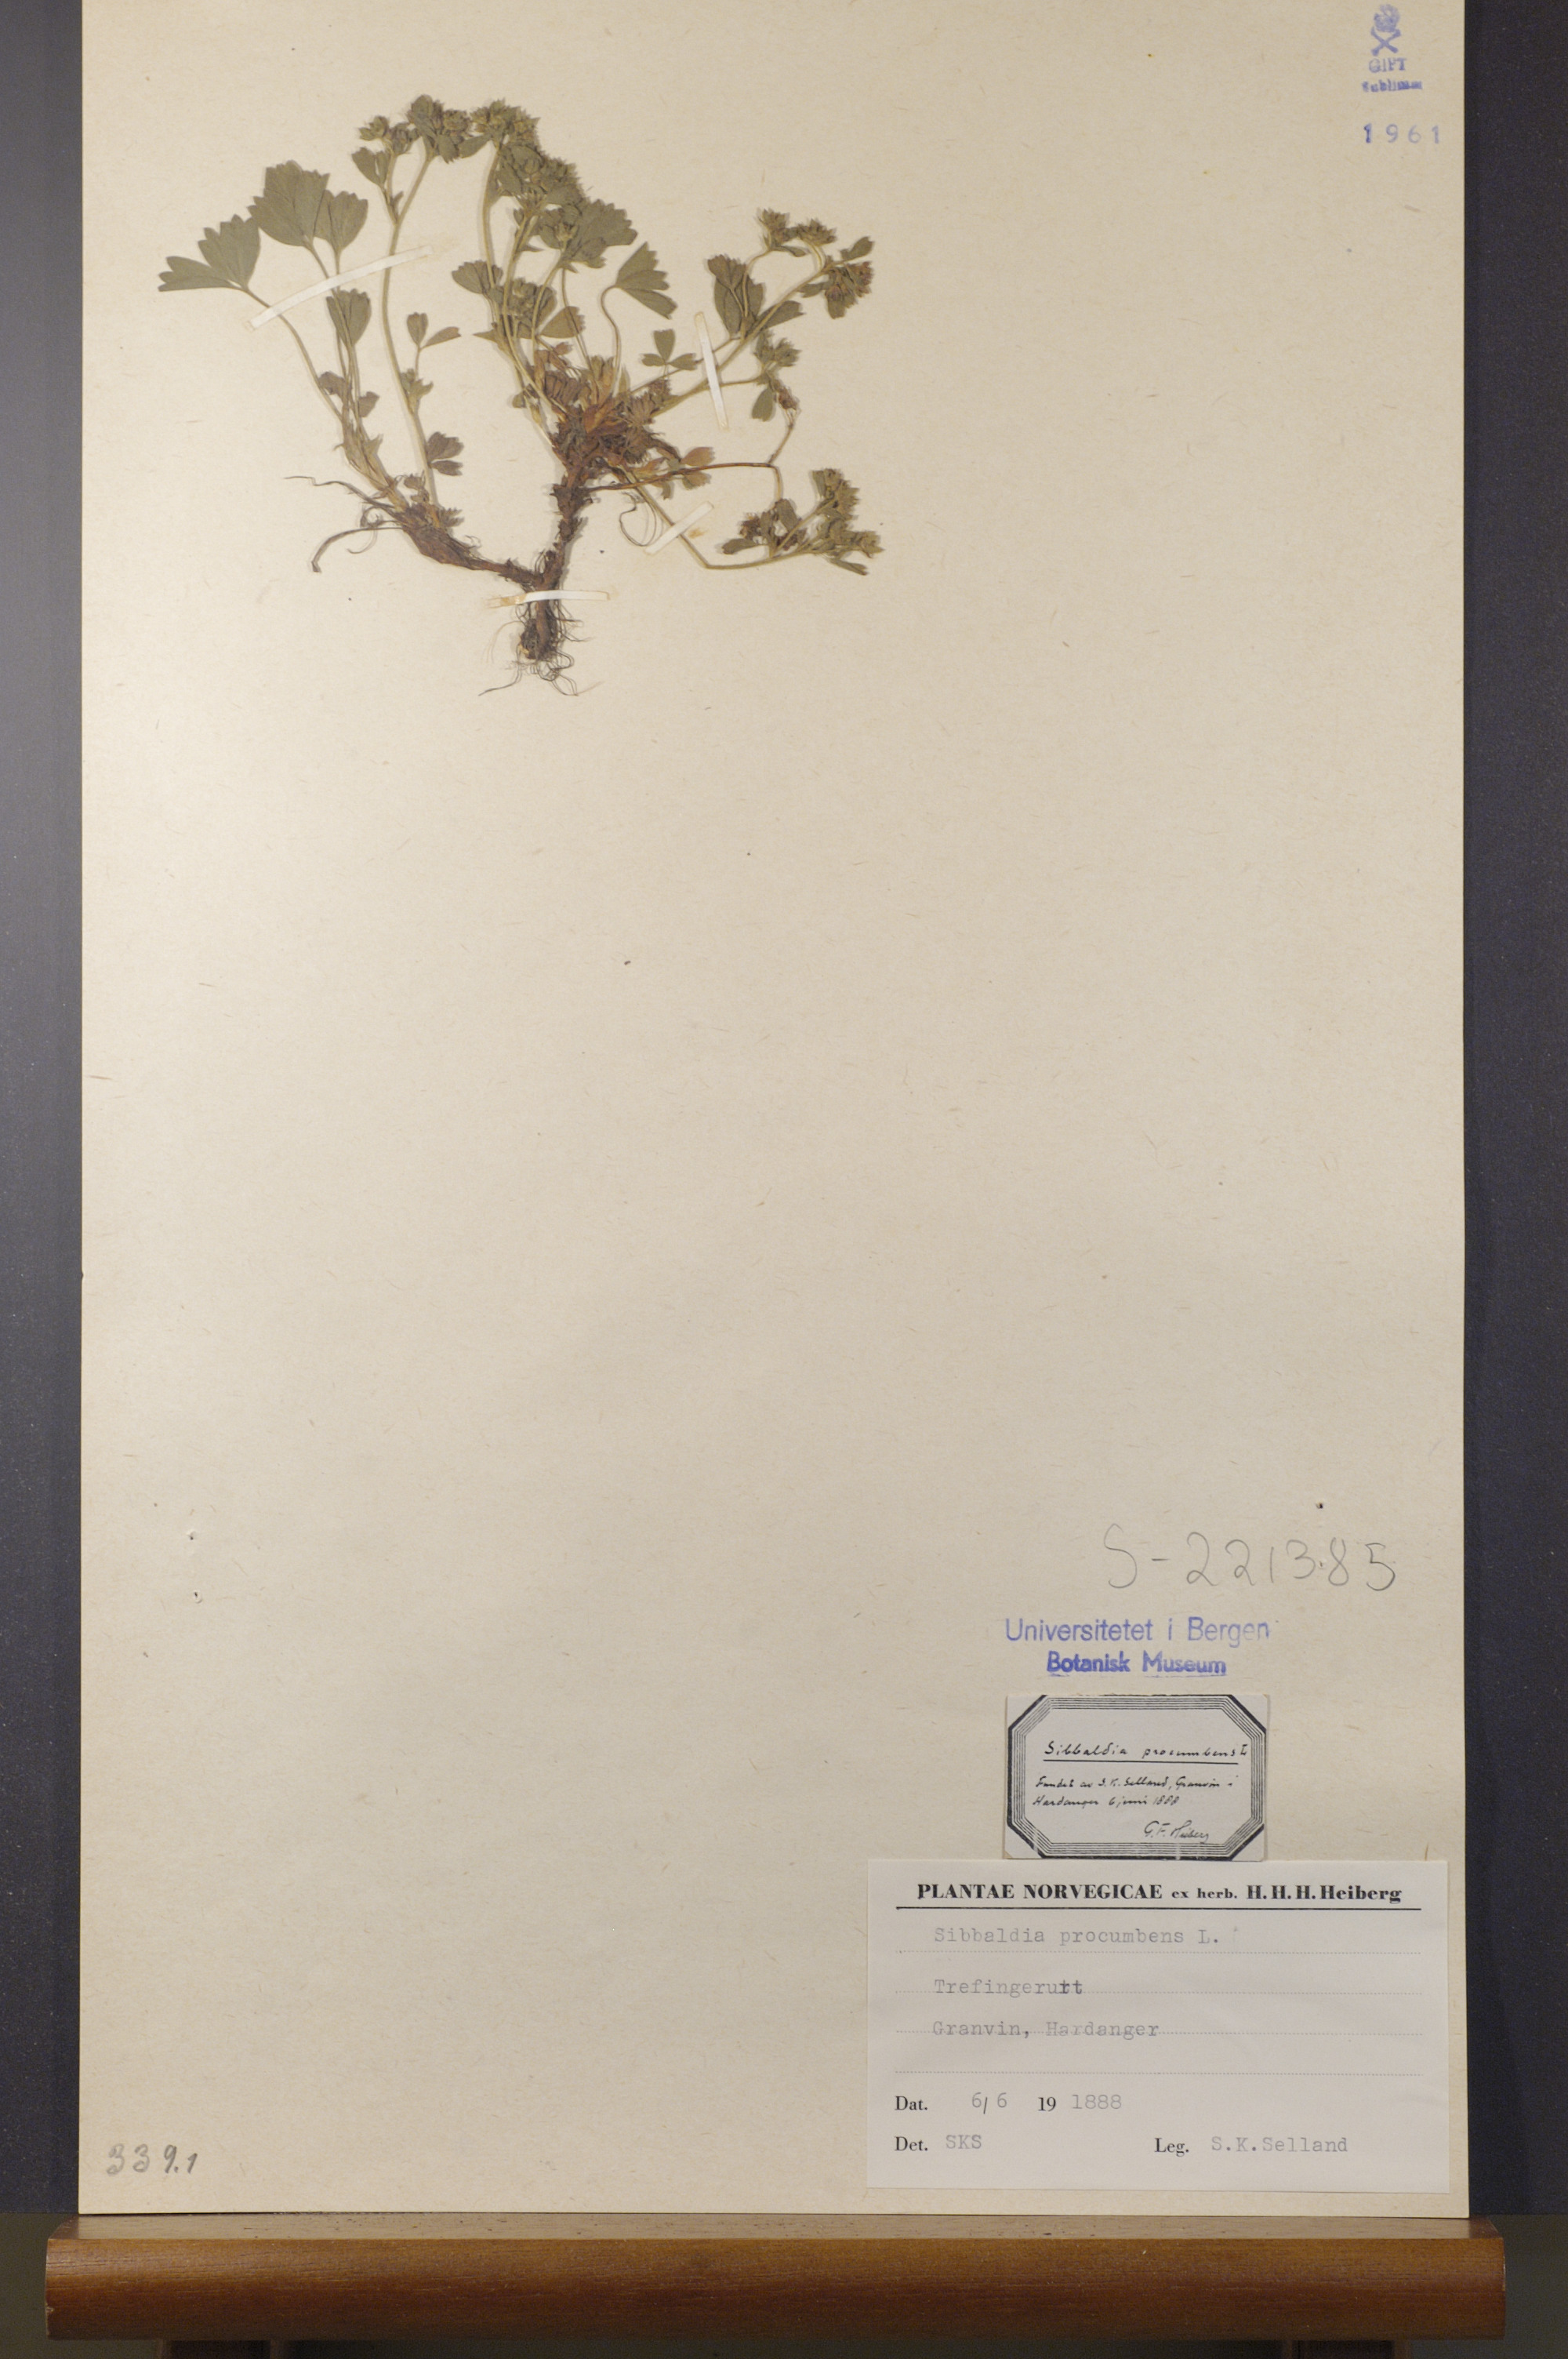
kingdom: Plantae
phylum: Tracheophyta
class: Magnoliopsida
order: Rosales
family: Rosaceae
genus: Sibbaldia
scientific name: Sibbaldia procumbens
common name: Creeping sibbaldia
